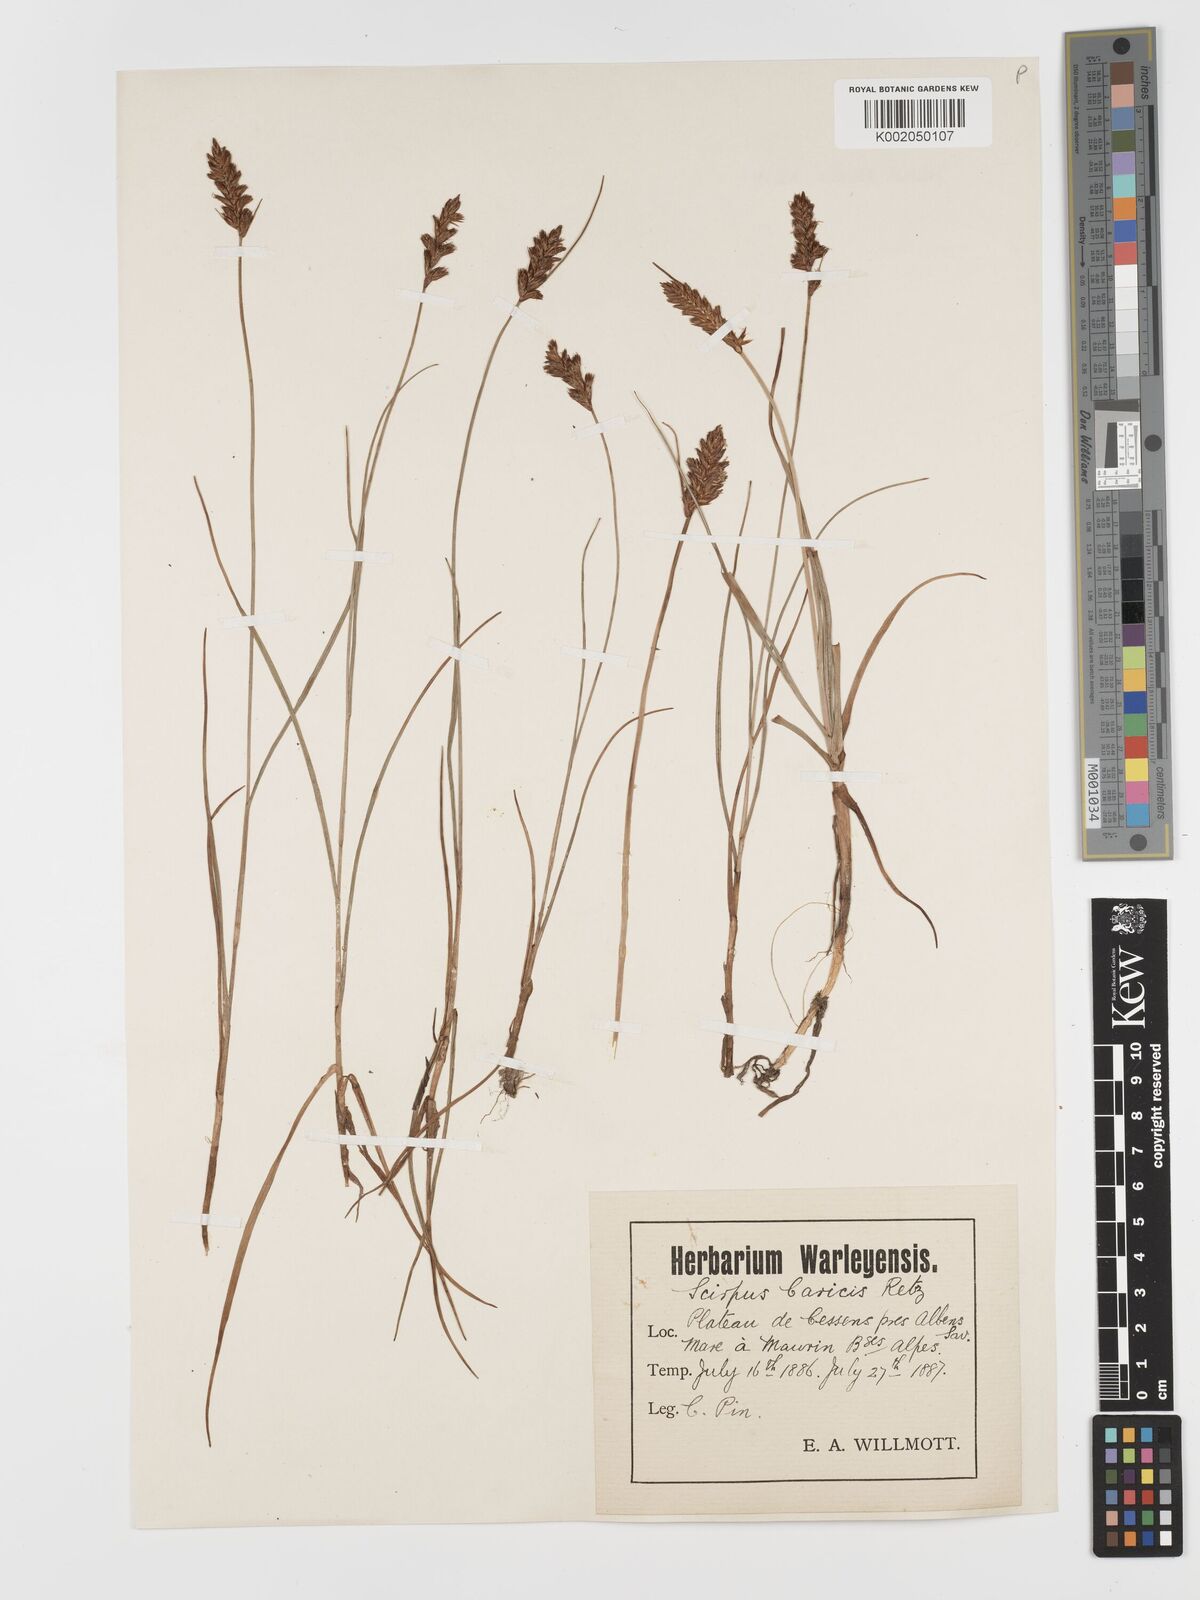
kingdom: Plantae
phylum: Tracheophyta
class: Liliopsida
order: Poales
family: Cyperaceae
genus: Blysmus
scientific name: Blysmus compressus
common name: Flat-sedge
